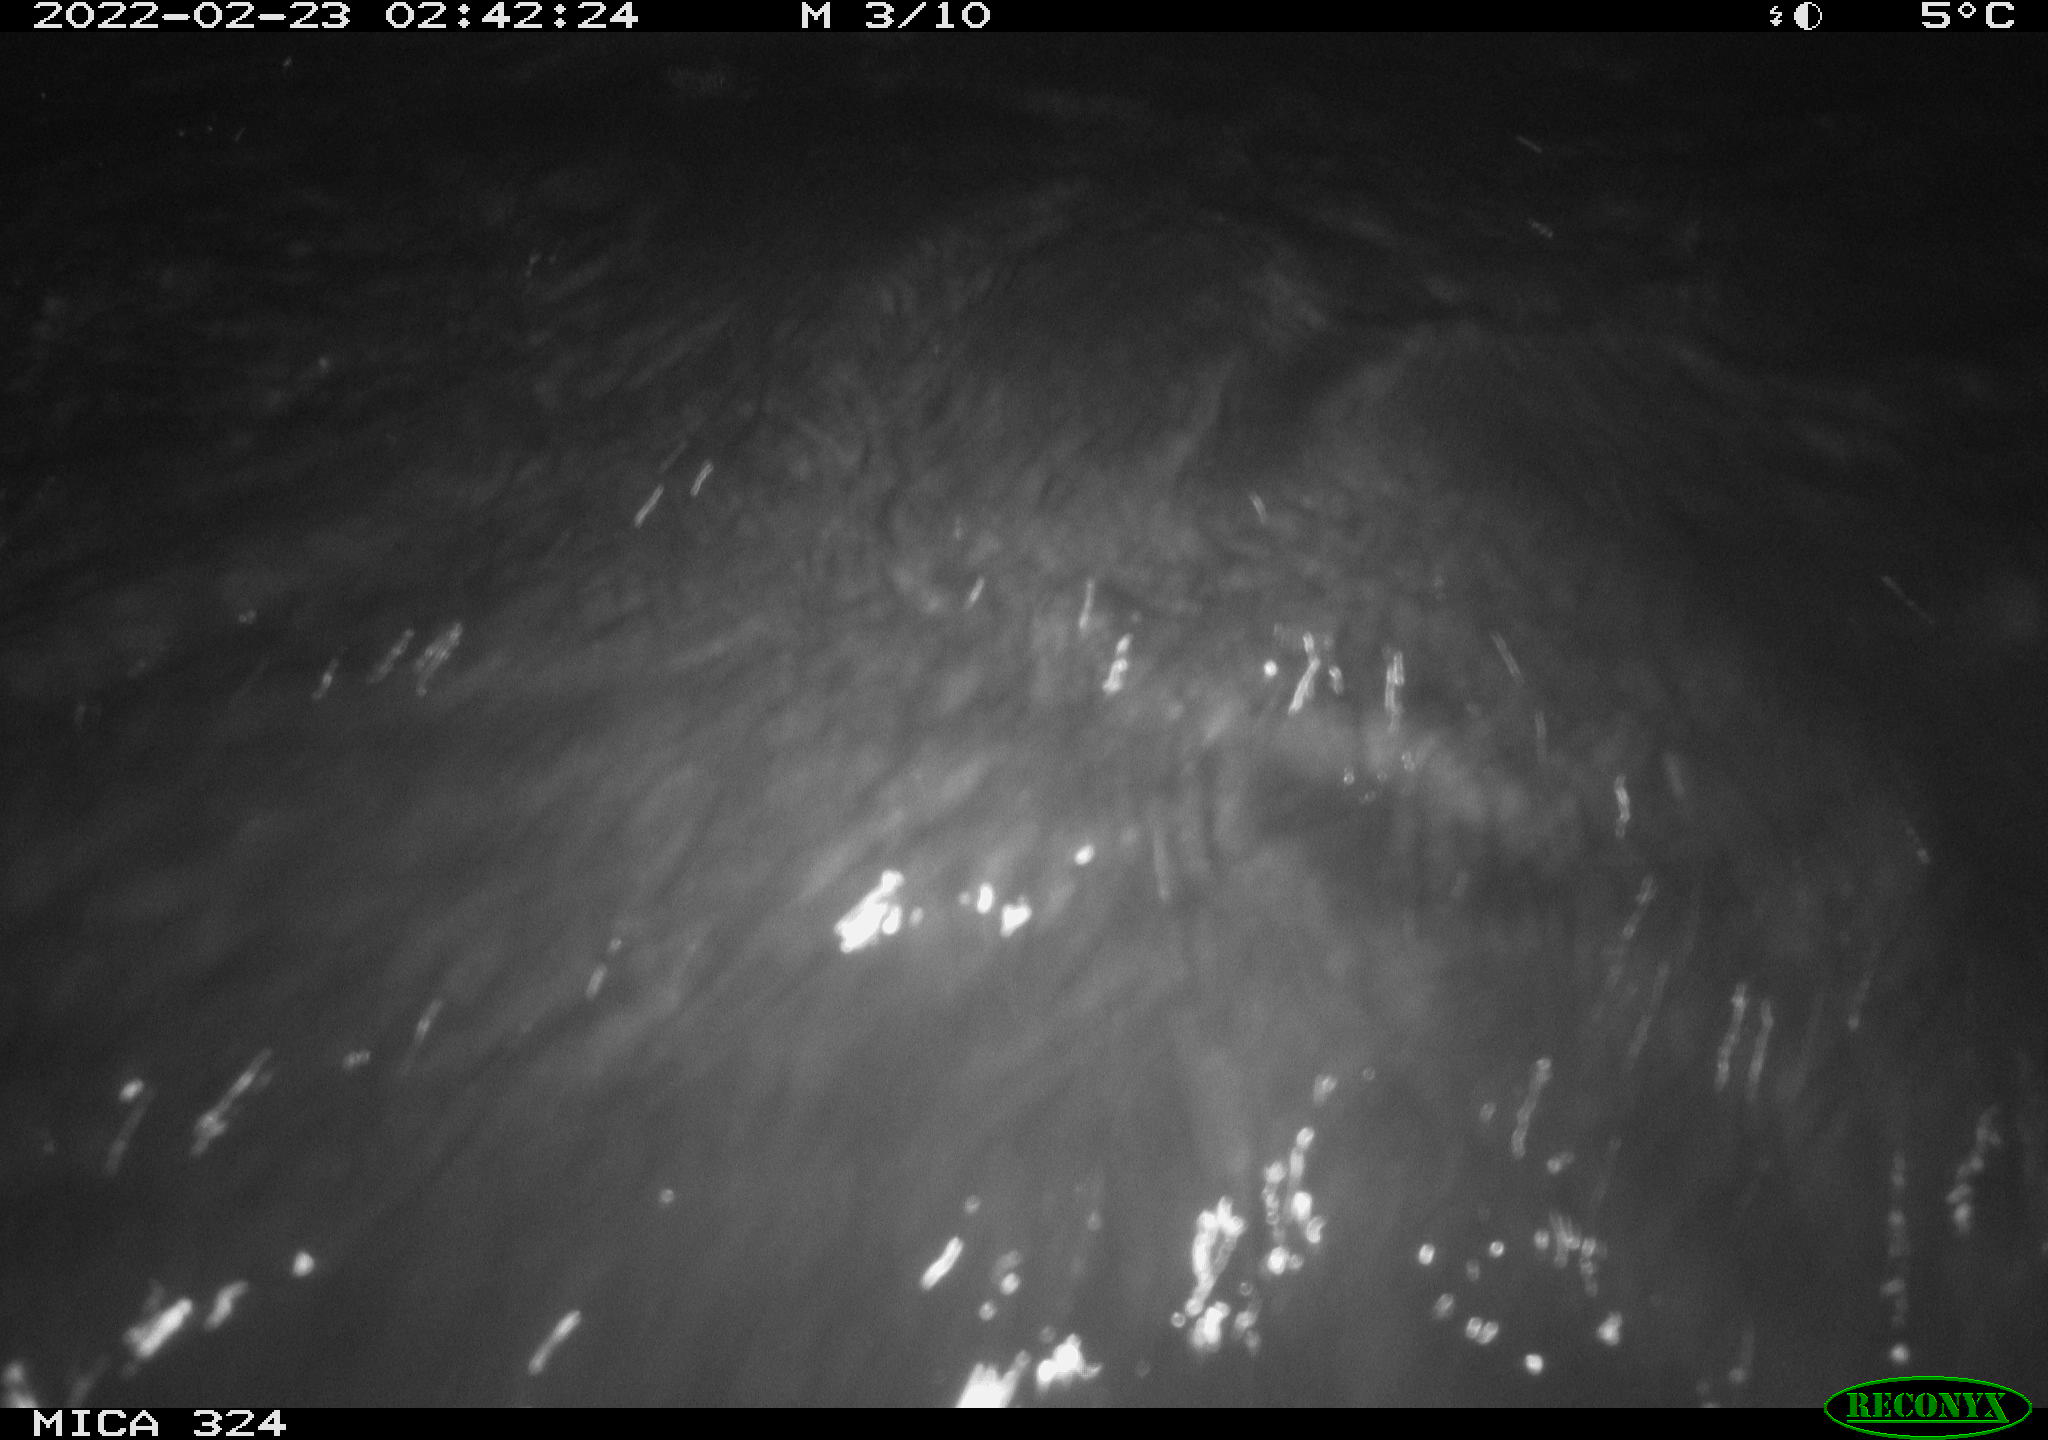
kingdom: Animalia
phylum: Chordata
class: Mammalia
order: Rodentia
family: Cricetidae
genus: Ondatra
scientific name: Ondatra zibethicus
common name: Muskrat
